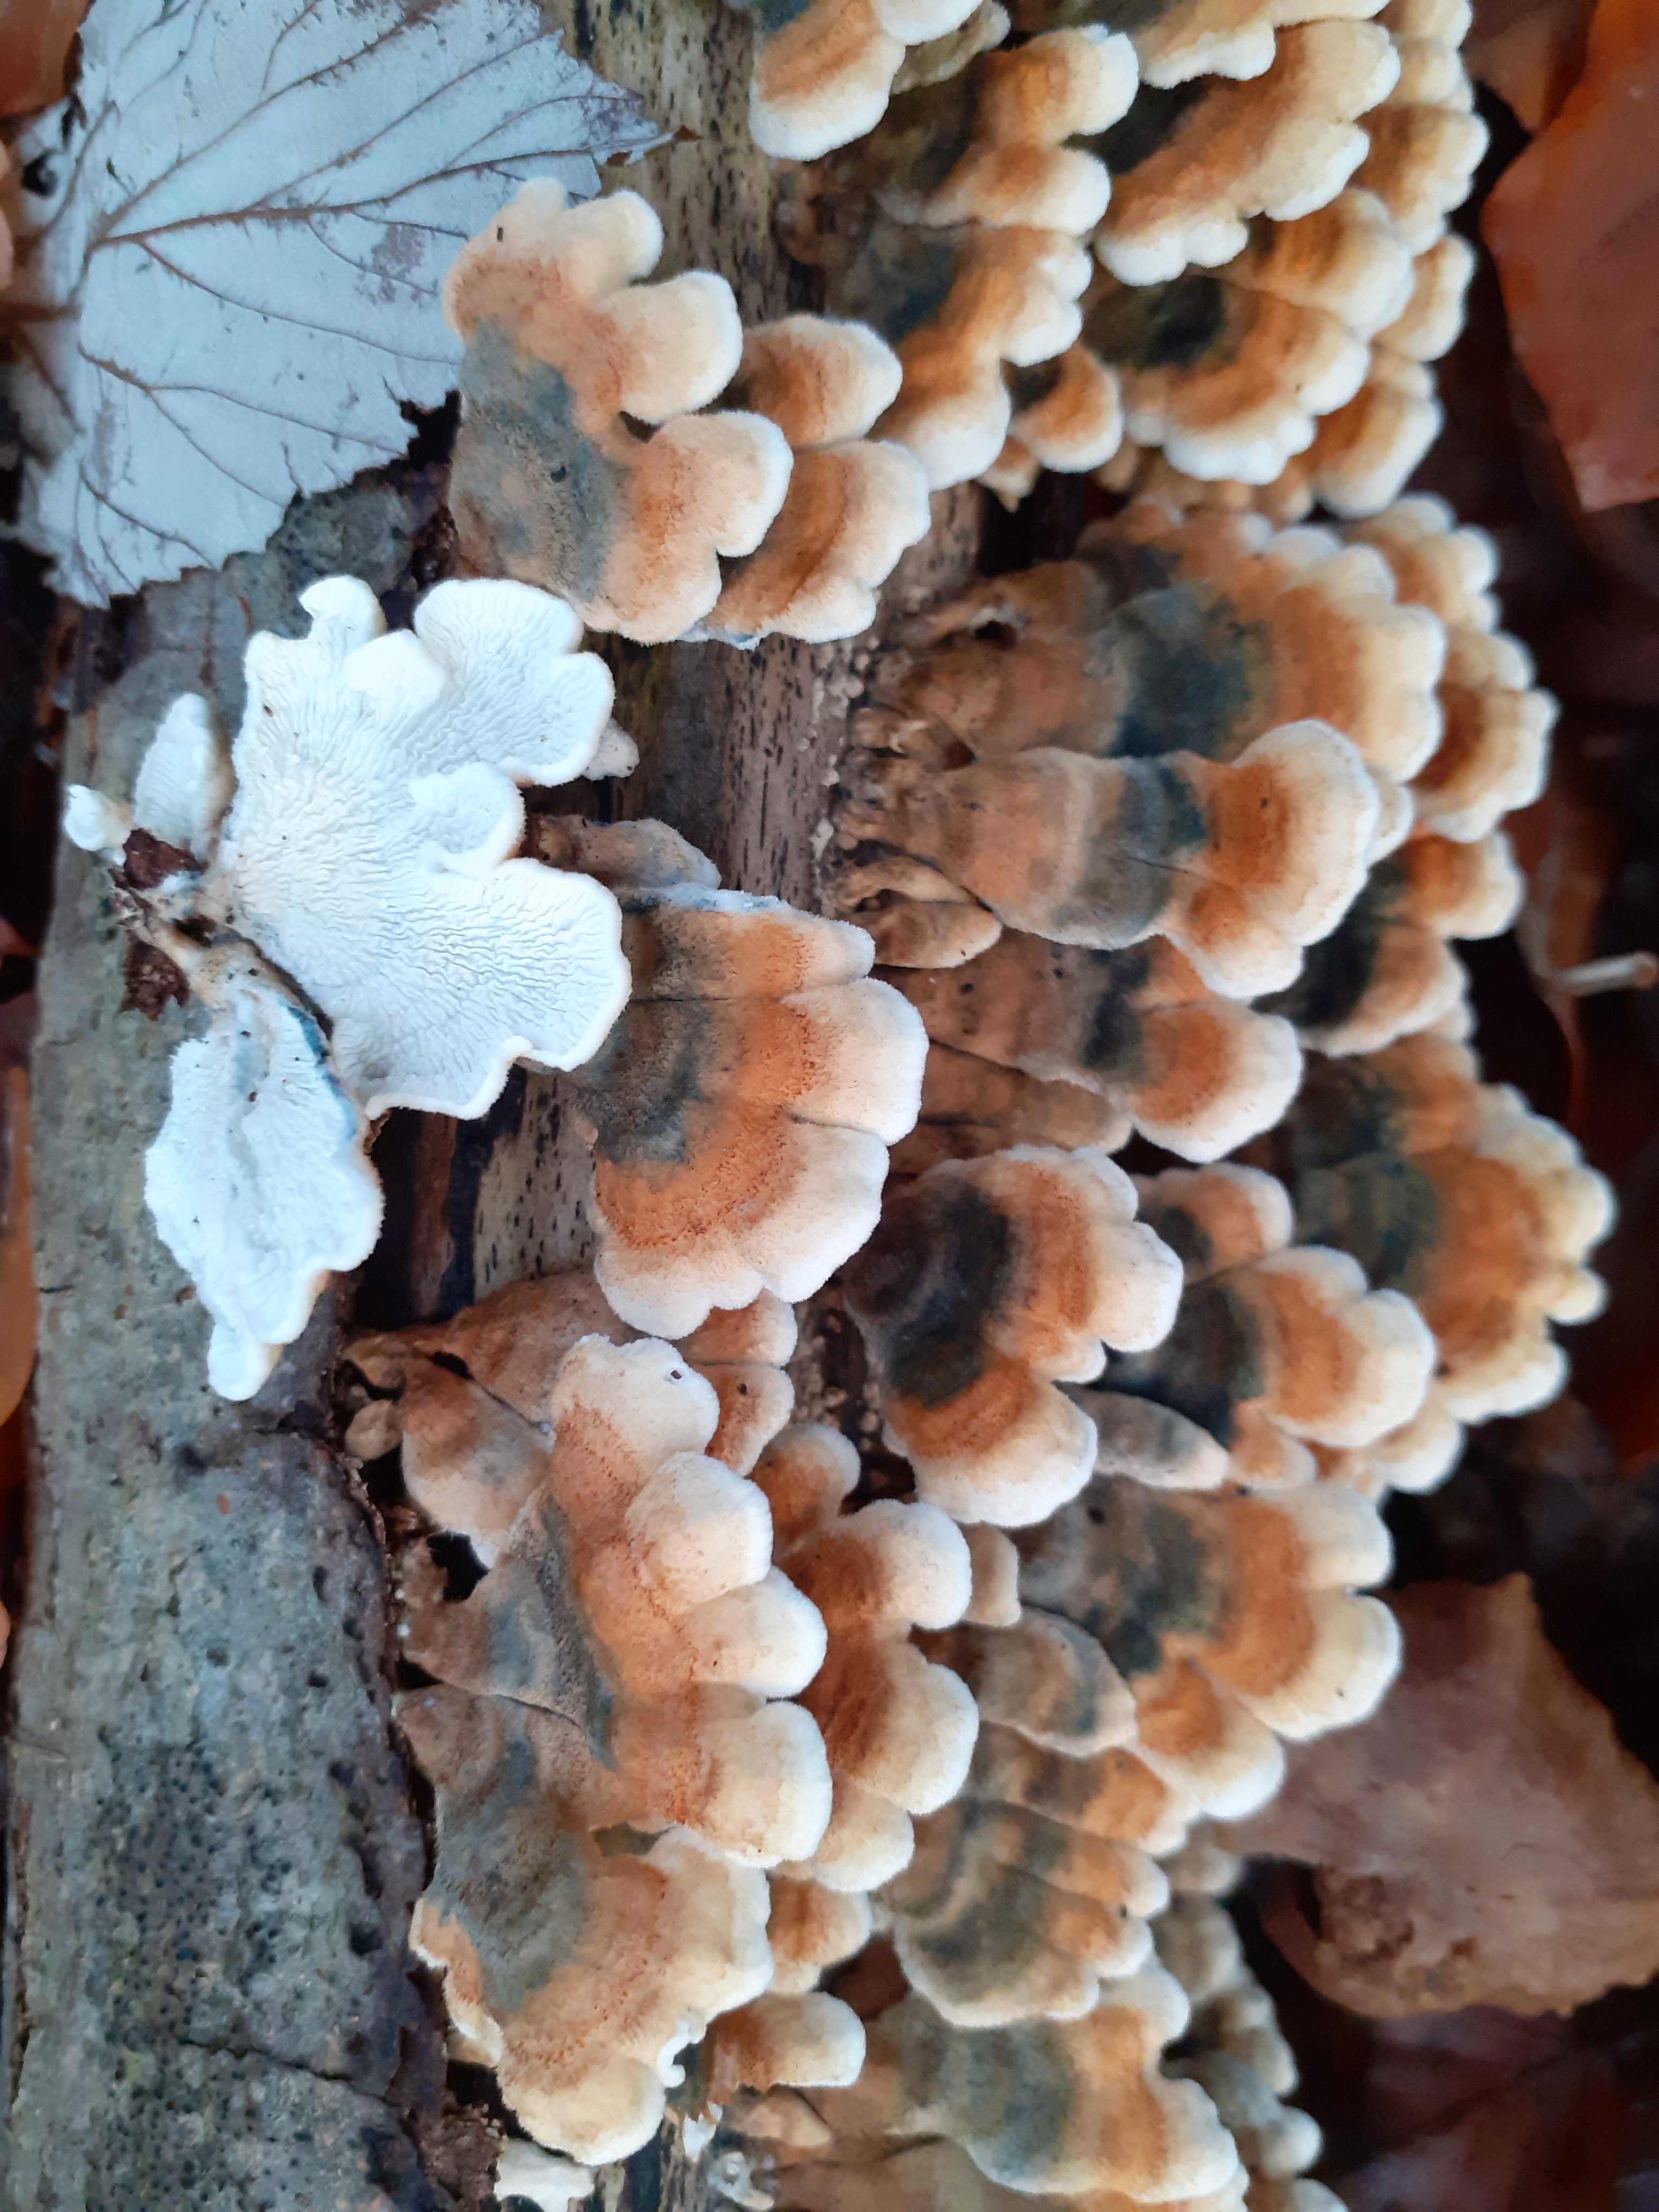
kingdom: Fungi
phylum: Basidiomycota
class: Agaricomycetes
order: Amylocorticiales
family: Amylocorticiaceae
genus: Plicaturopsis
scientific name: Plicaturopsis crispa
